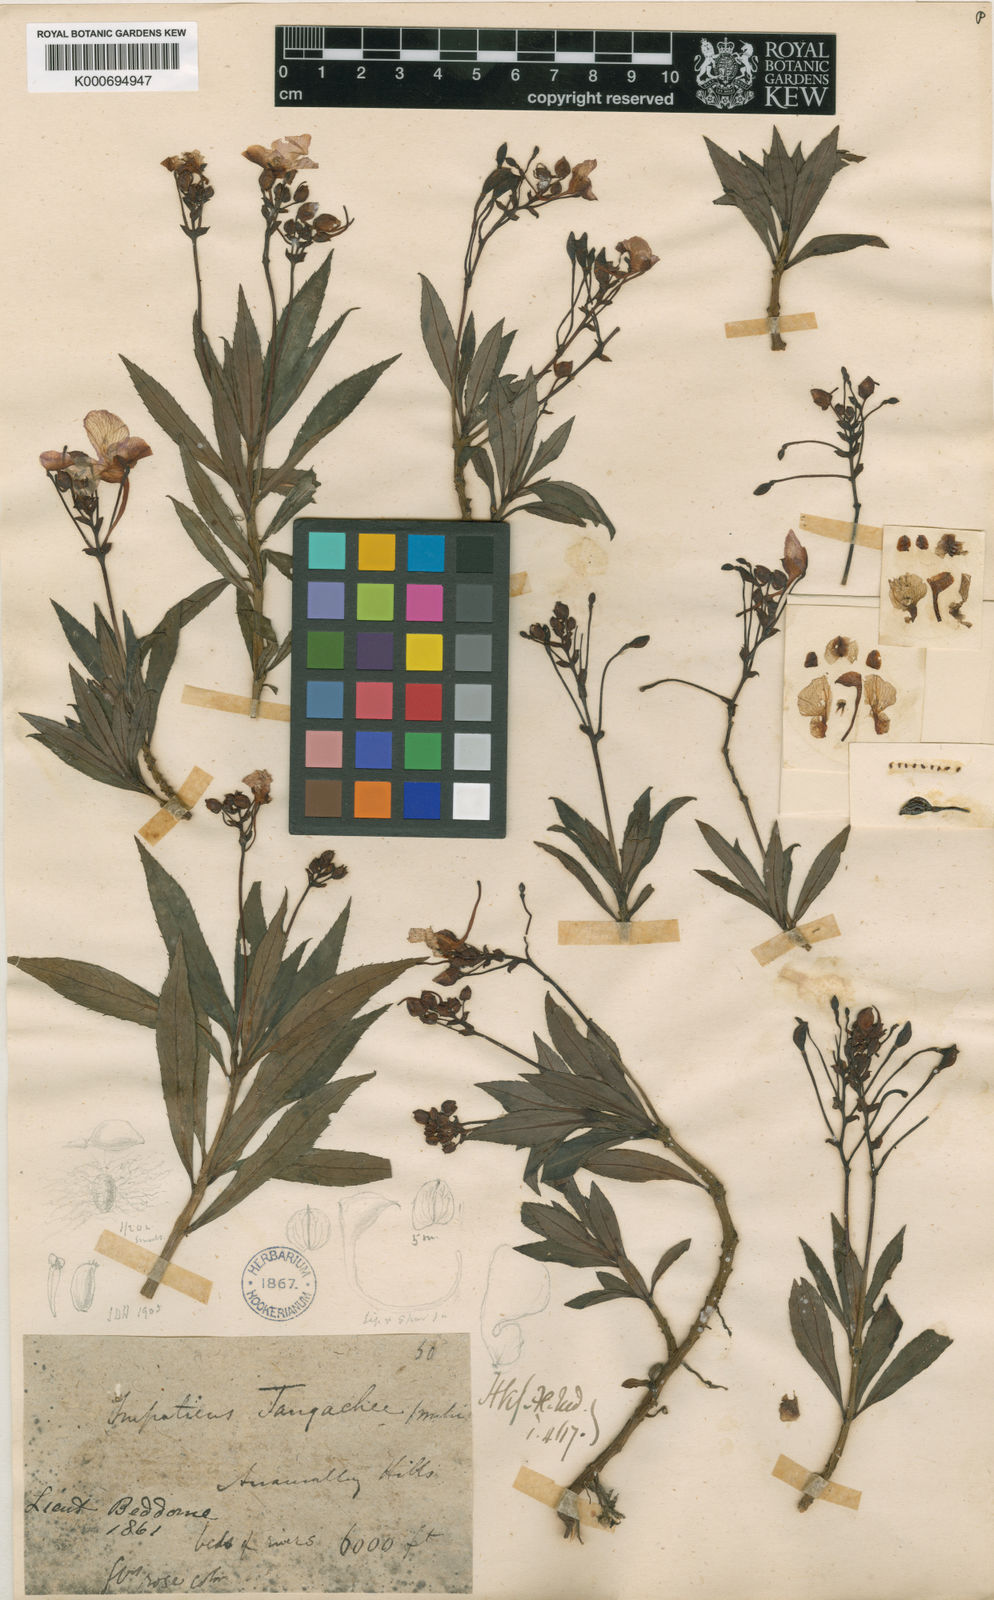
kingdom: Plantae
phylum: Tracheophyta
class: Magnoliopsida
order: Ericales
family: Balsaminaceae
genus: Impatiens
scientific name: Impatiens tangachee
